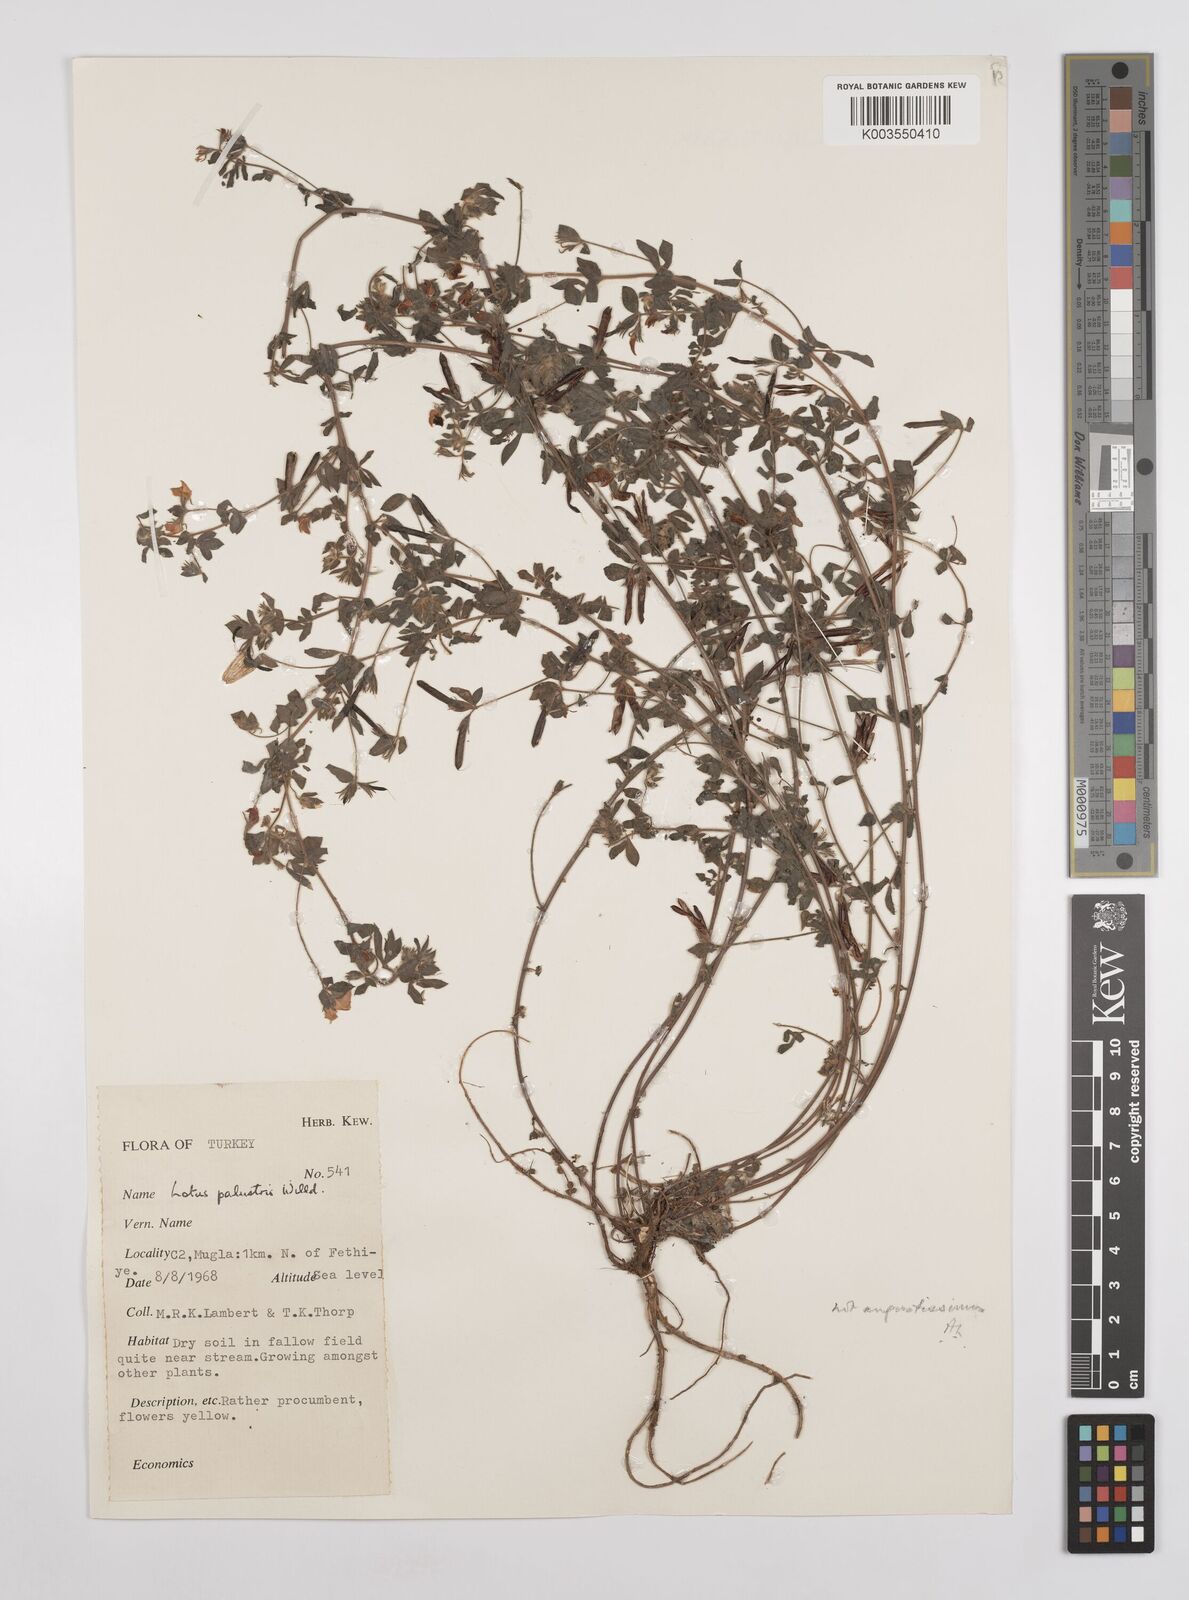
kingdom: Plantae
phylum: Tracheophyta
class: Magnoliopsida
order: Fabales
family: Fabaceae
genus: Lotus
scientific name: Lotus palustris
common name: Large birds-foot trefoil
